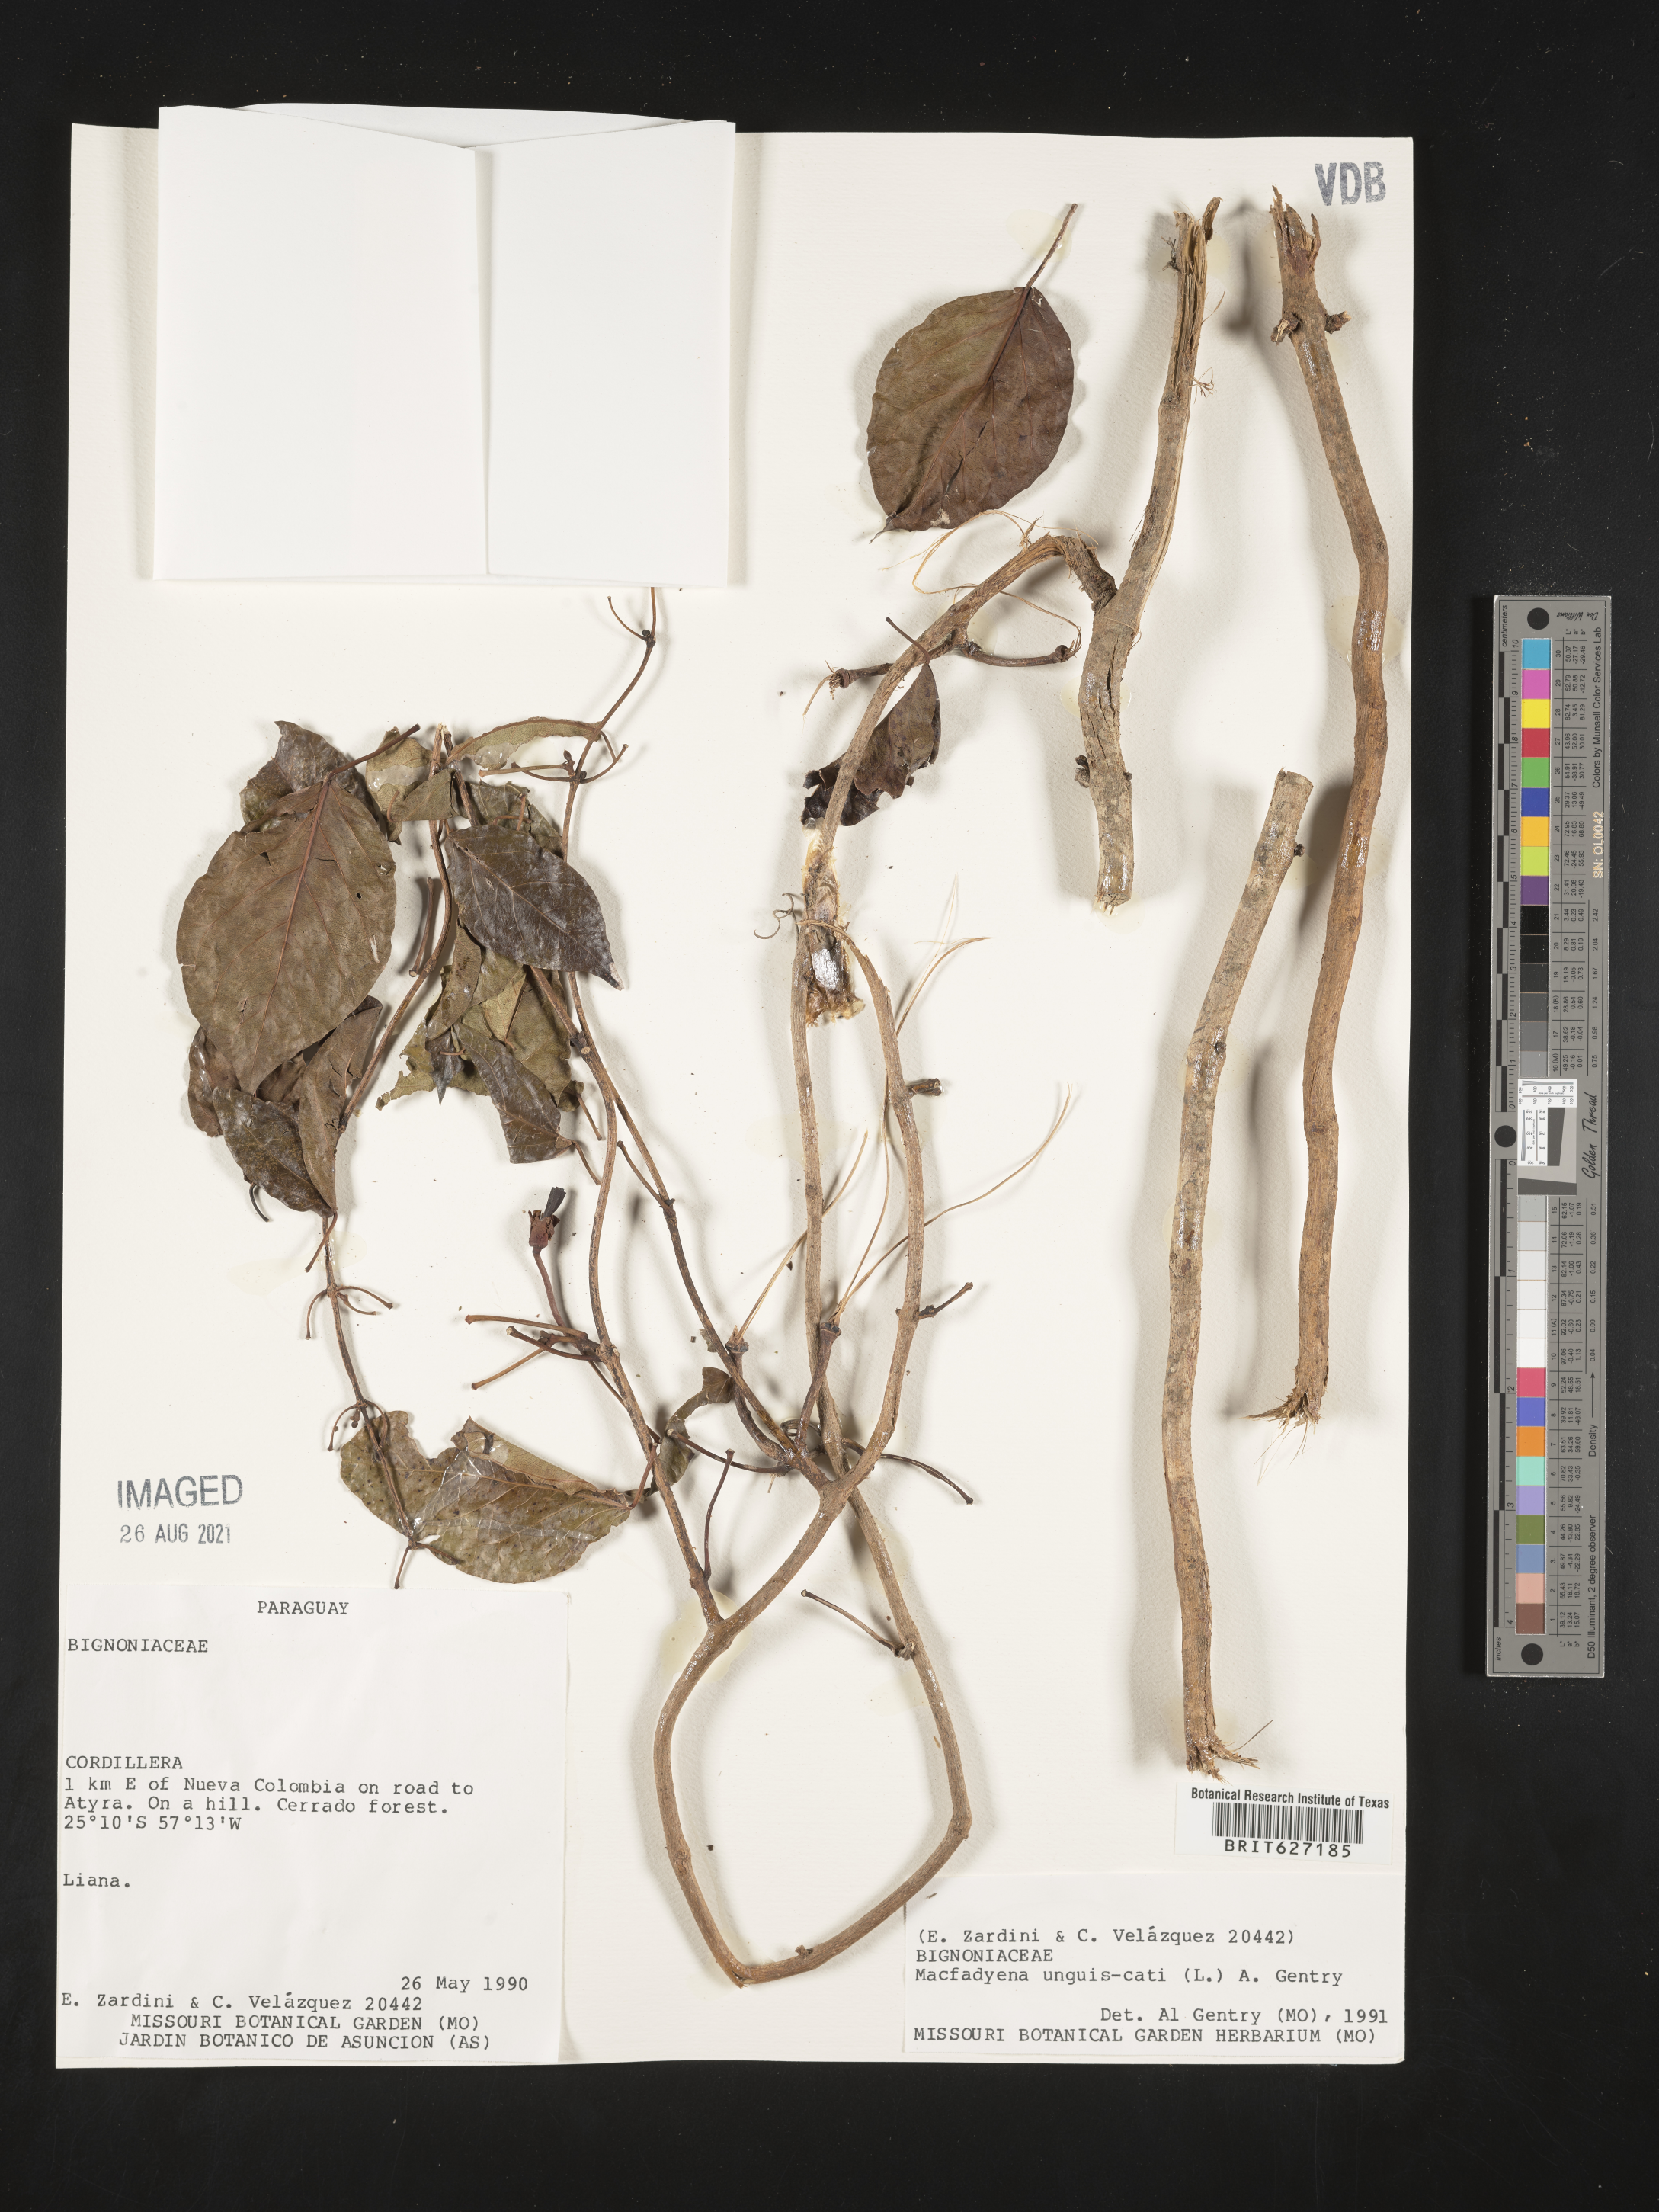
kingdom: Plantae
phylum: Tracheophyta
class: Magnoliopsida
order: Lamiales
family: Bignoniaceae
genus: Dolichandra
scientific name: Dolichandra unguis-cati
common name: Catclaw vine
